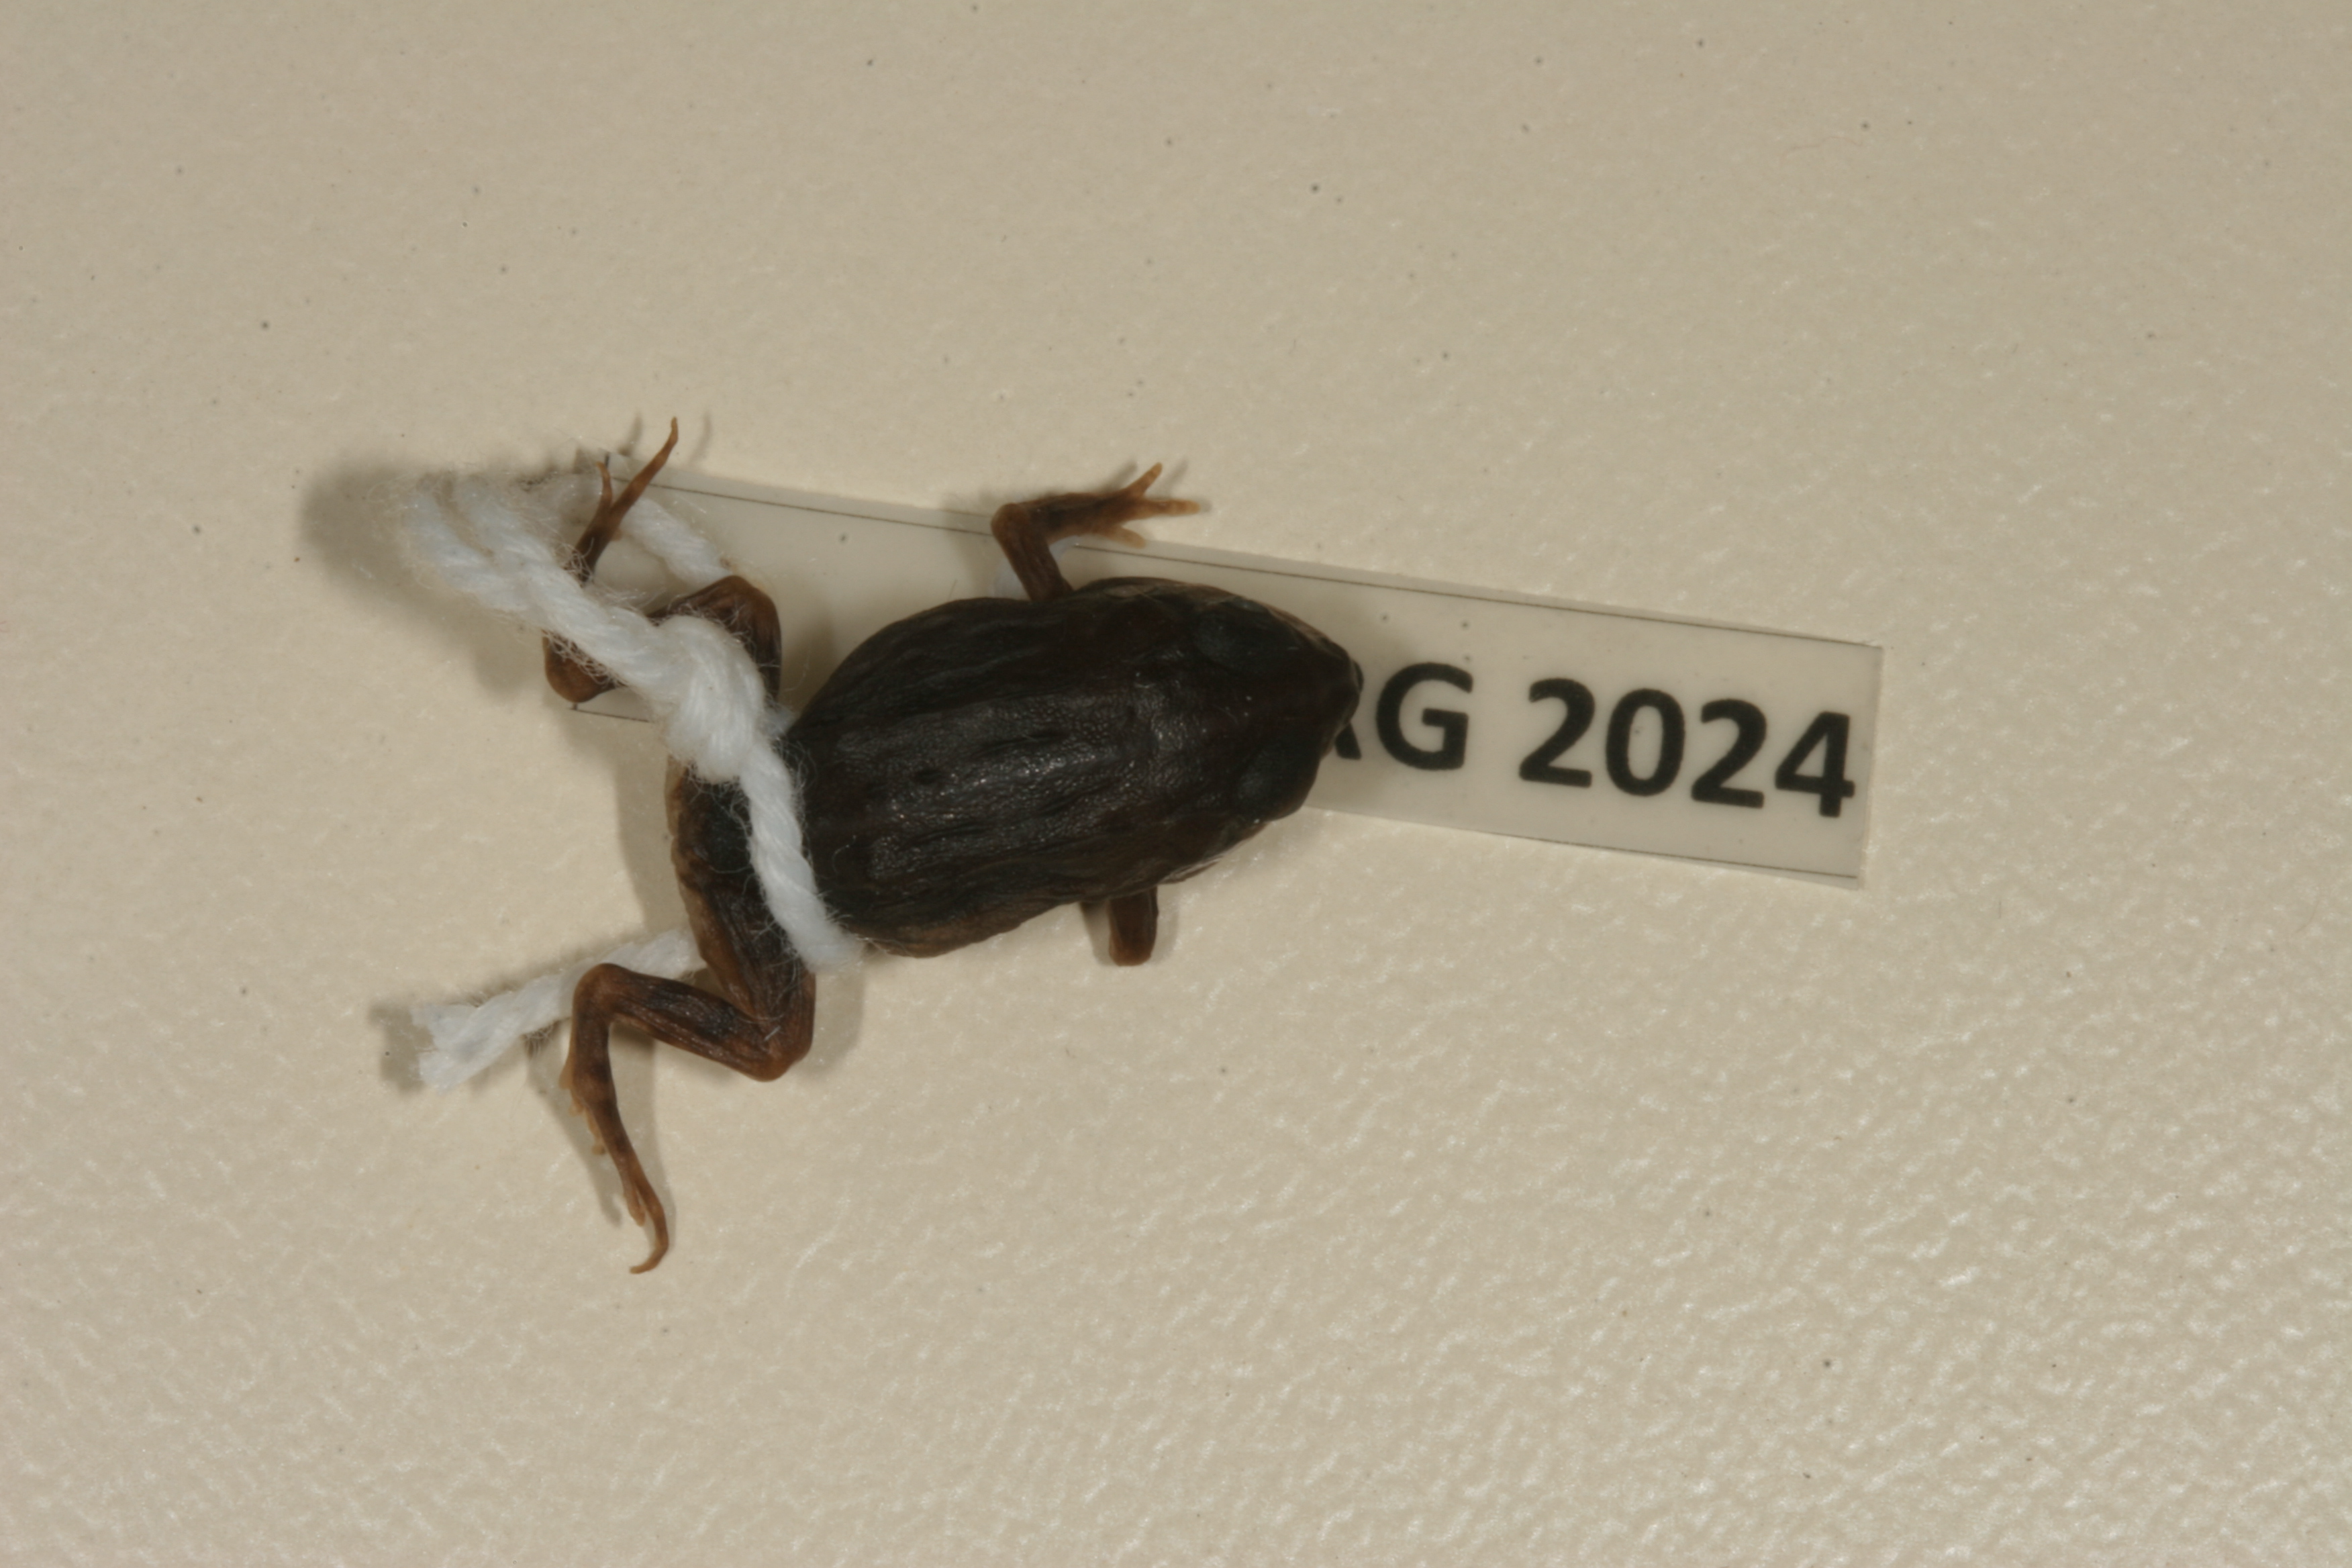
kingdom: Animalia
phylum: Chordata
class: Amphibia
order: Anura
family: Pyxicephalidae
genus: Pyxicephalus
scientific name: Pyxicephalus edulis
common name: Peter's bullfrog
